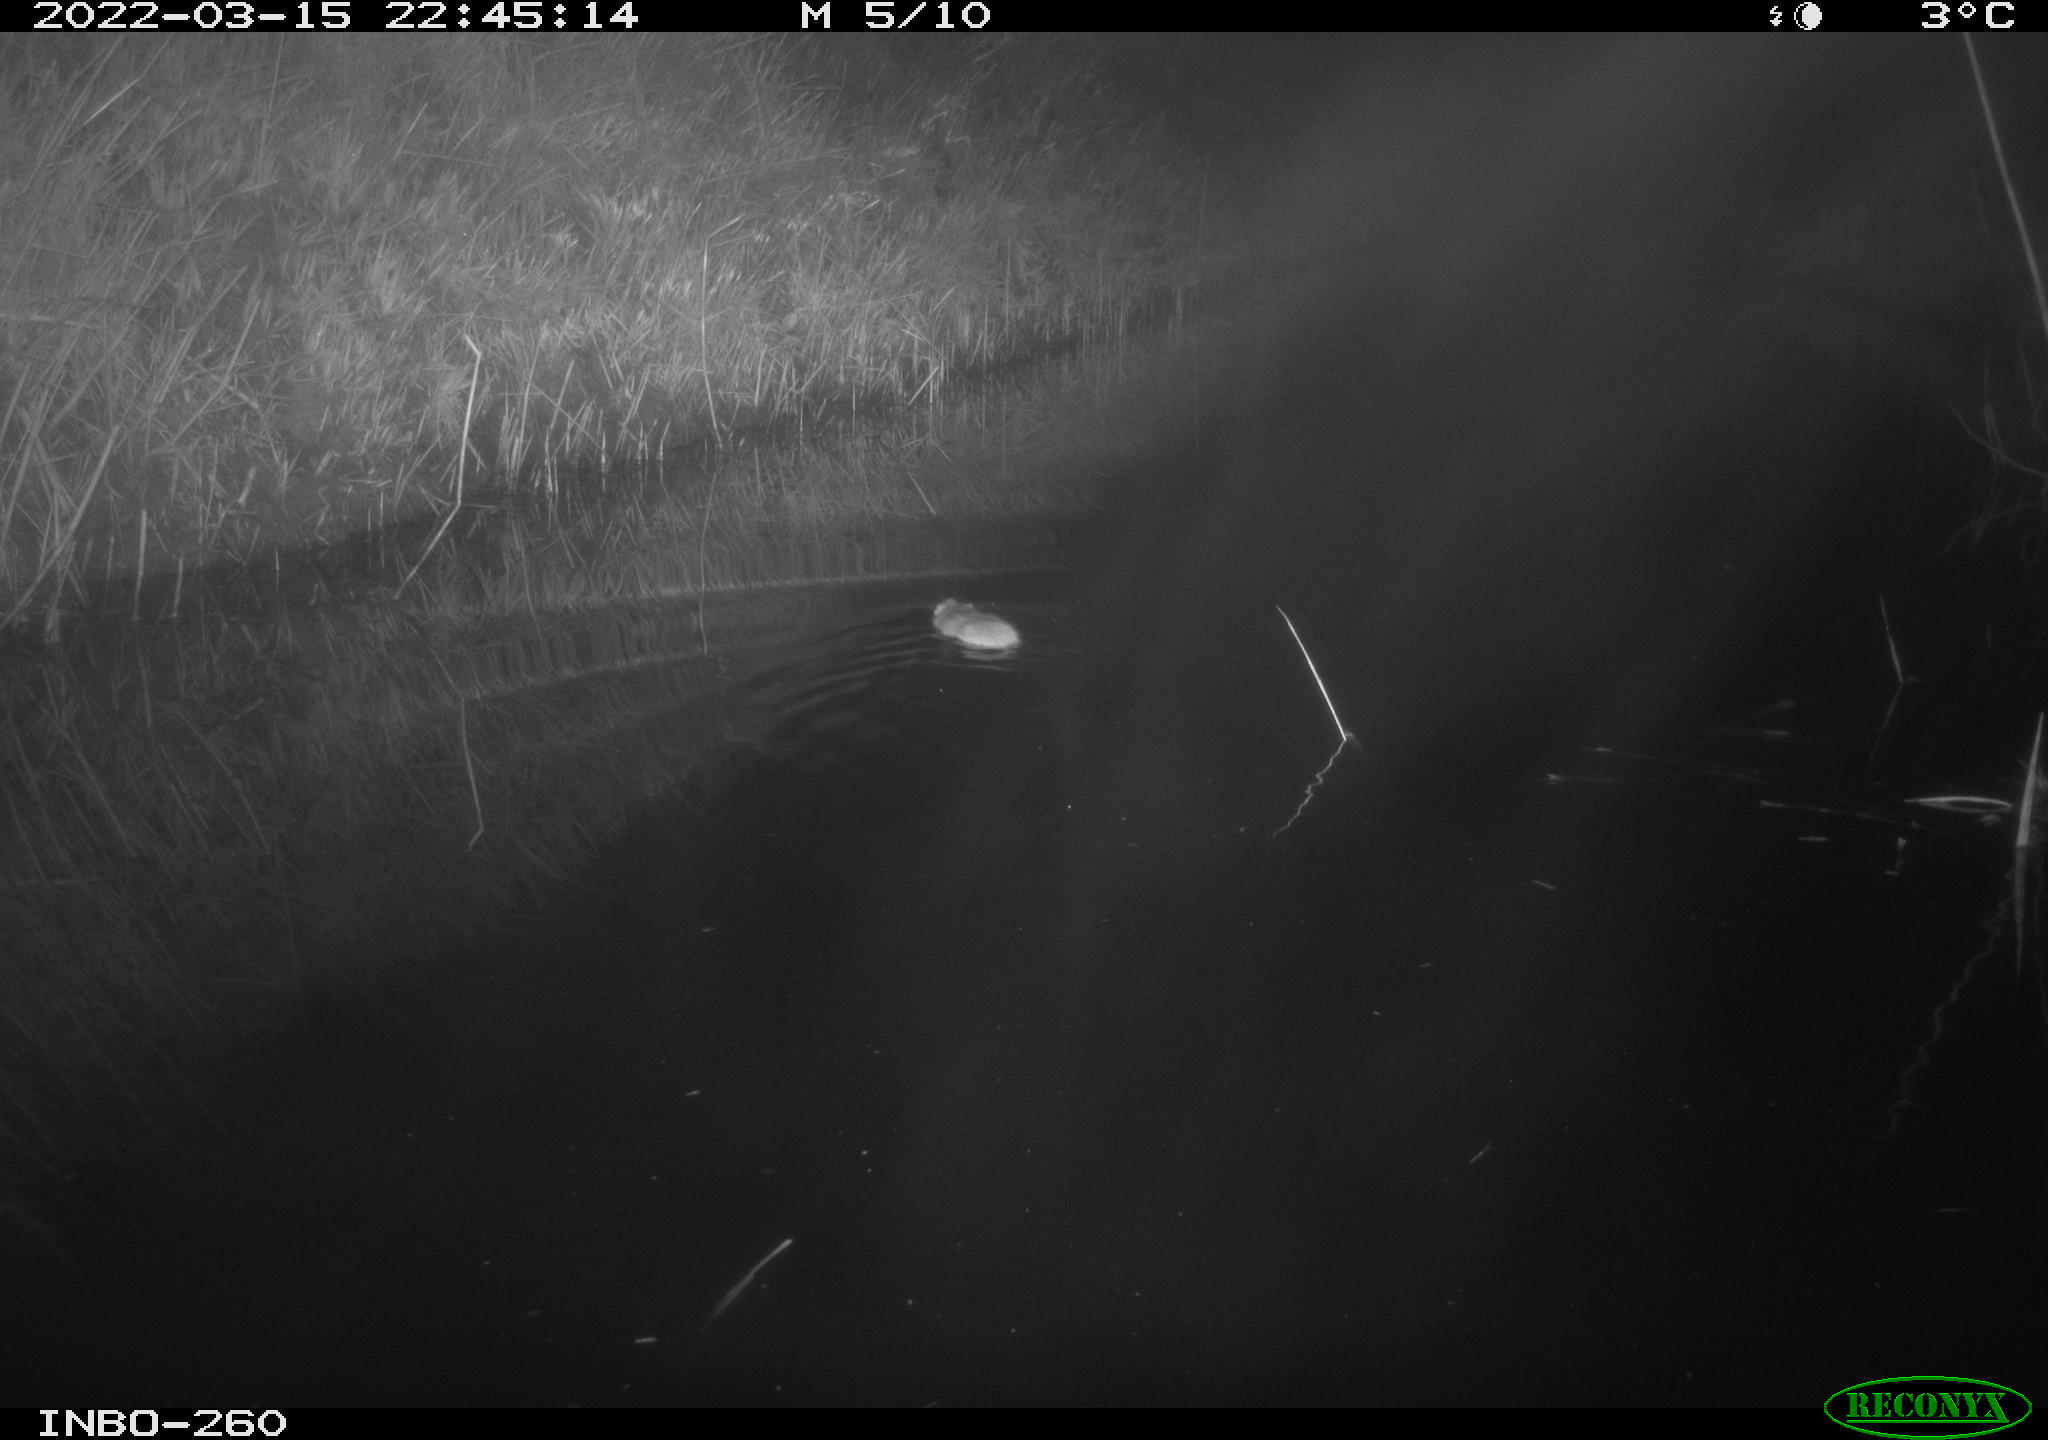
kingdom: Animalia
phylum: Chordata
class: Mammalia
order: Rodentia
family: Muridae
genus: Rattus
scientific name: Rattus norvegicus
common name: Brown rat
